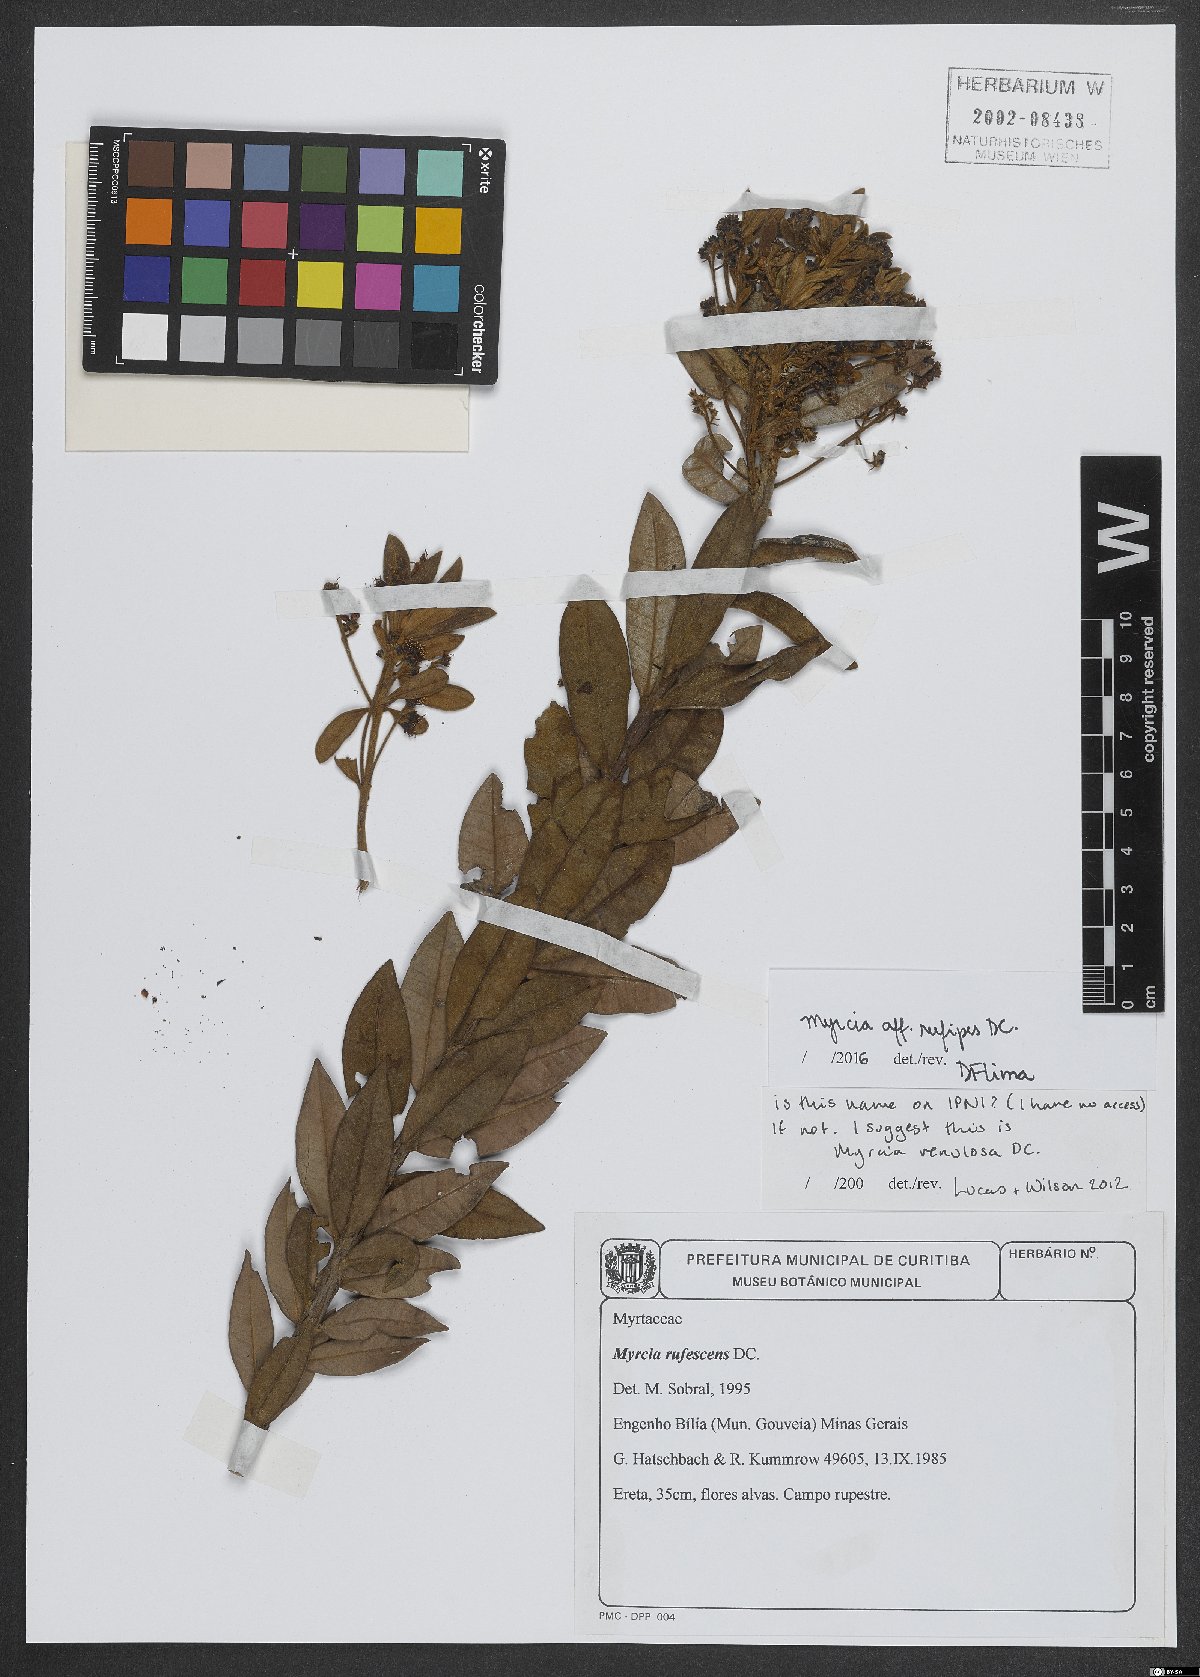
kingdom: Plantae
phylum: Tracheophyta
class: Magnoliopsida
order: Myrtales
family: Myrtaceae
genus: Myrcia
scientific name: Myrcia rufipes
